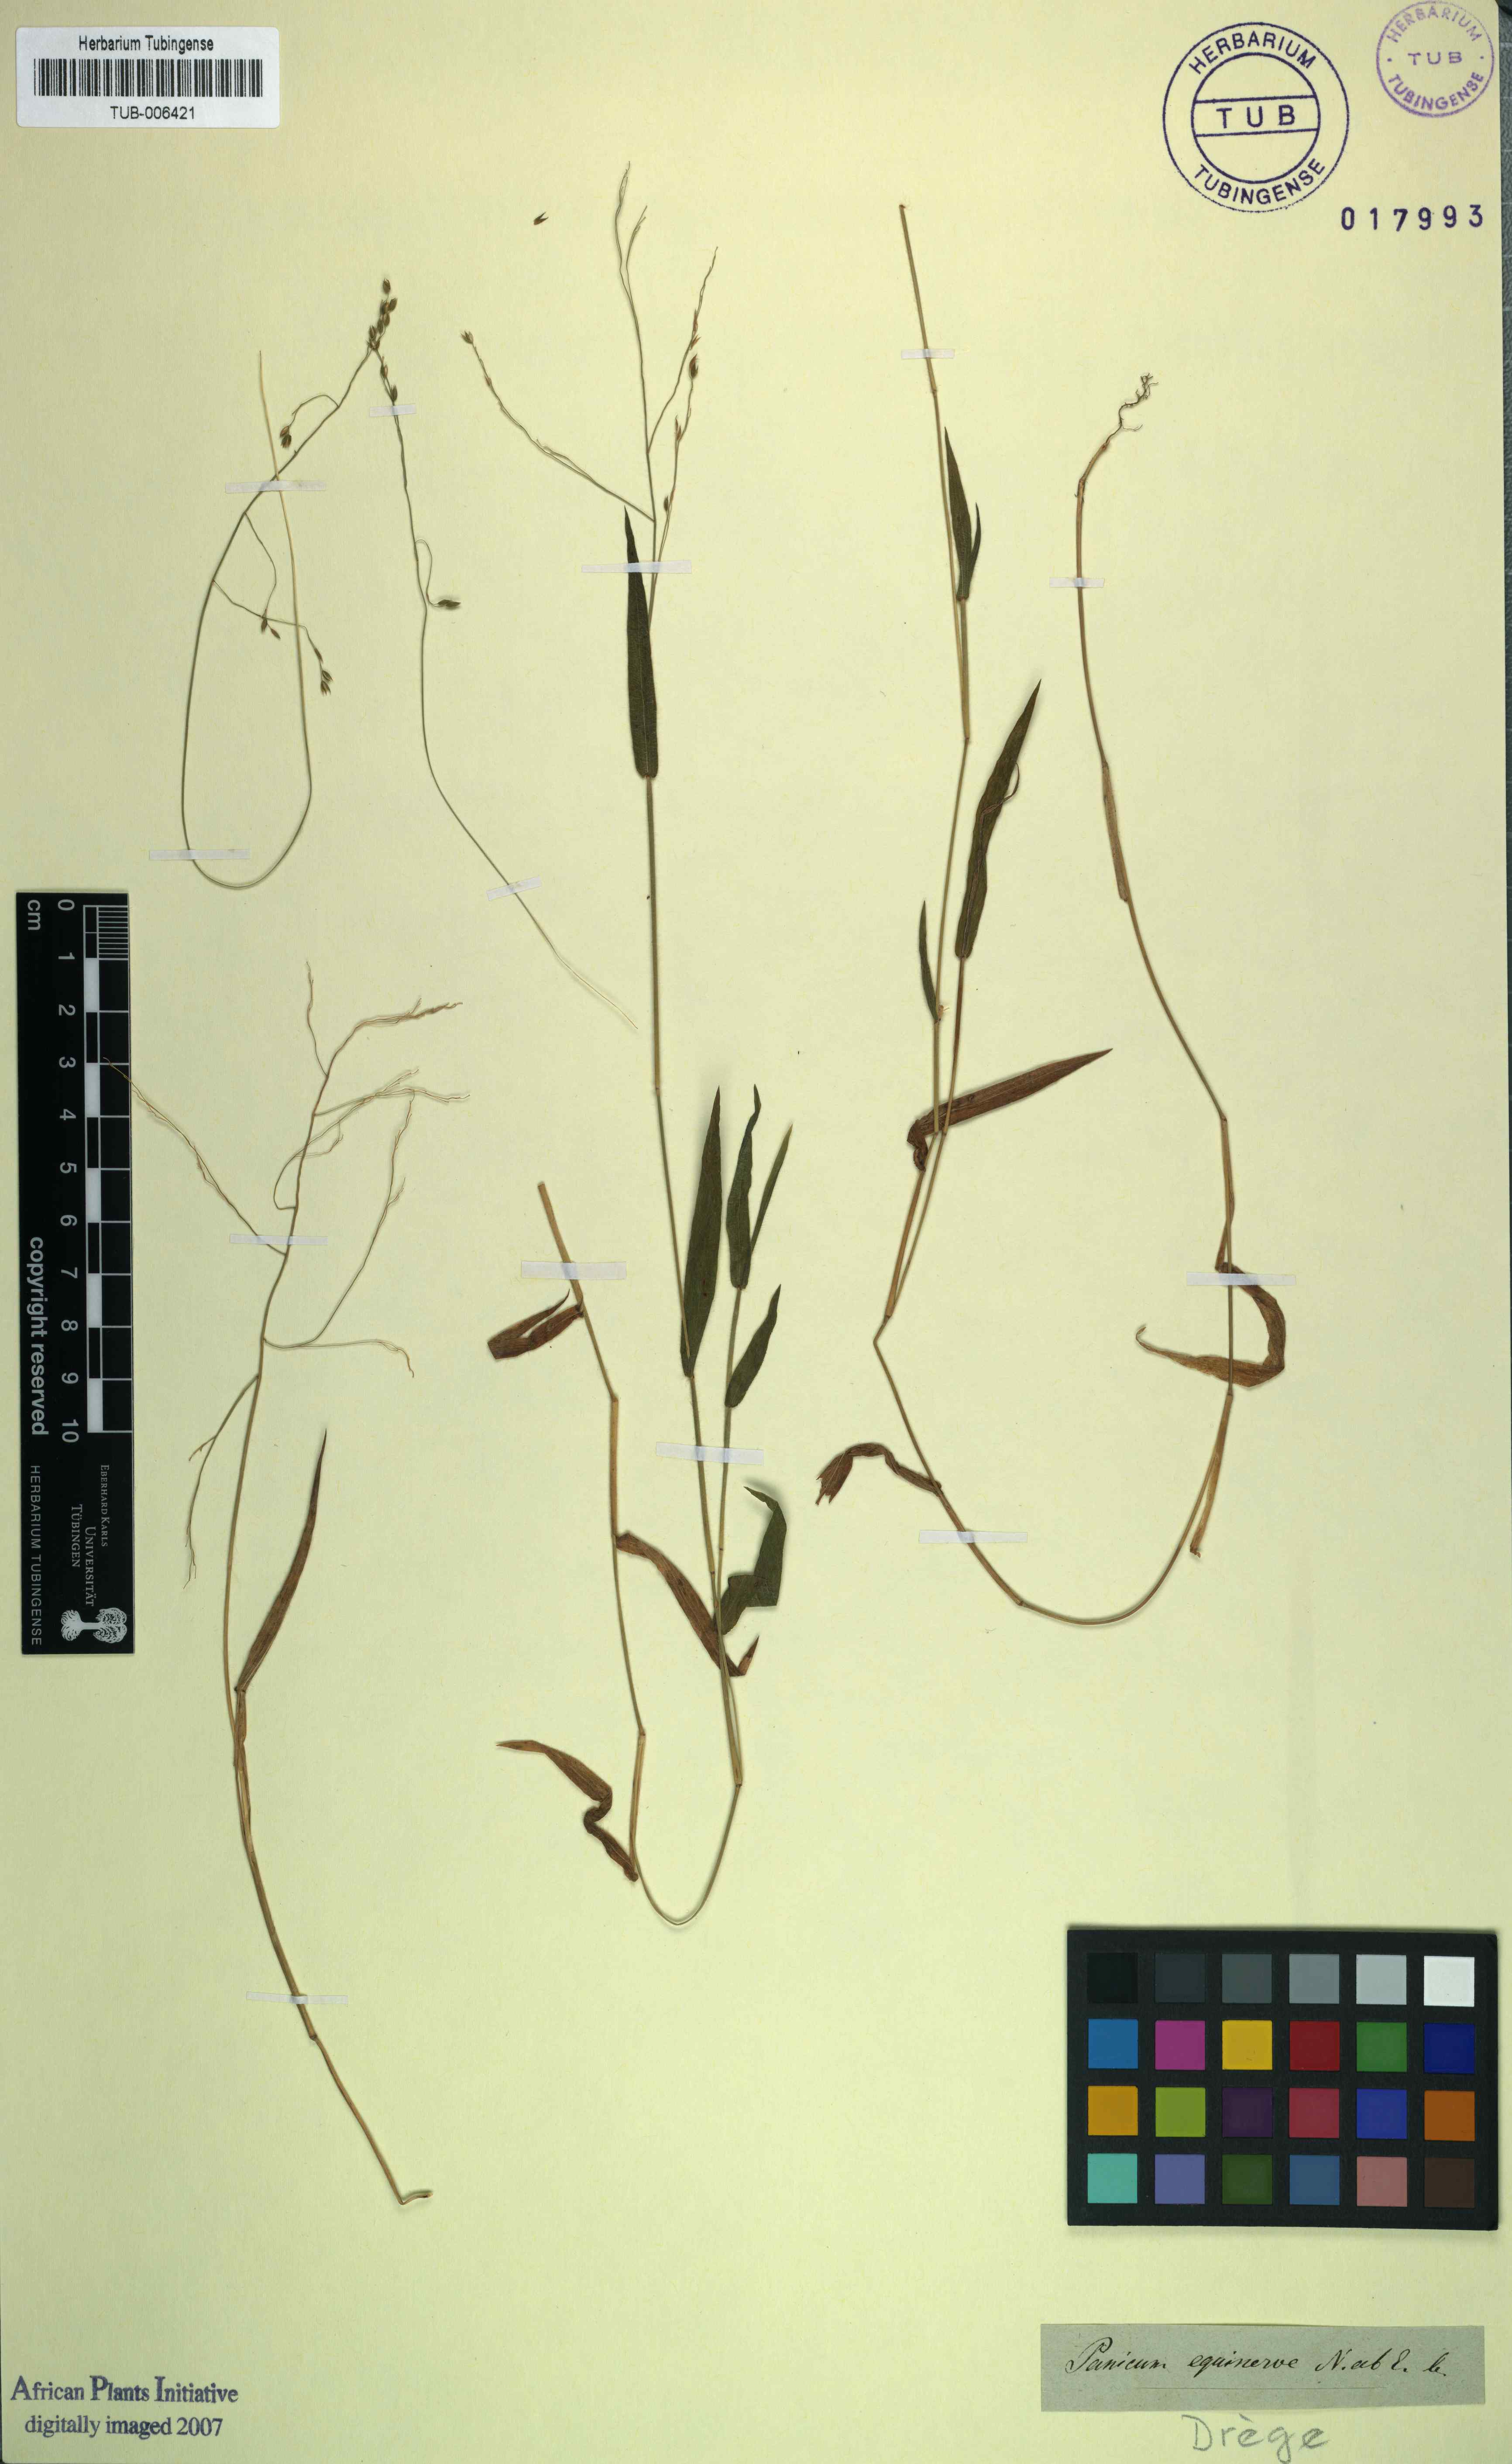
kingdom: Plantae
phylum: Tracheophyta
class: Liliopsida
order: Poales
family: Poaceae
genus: Panicum
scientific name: Panicum aequinerve
